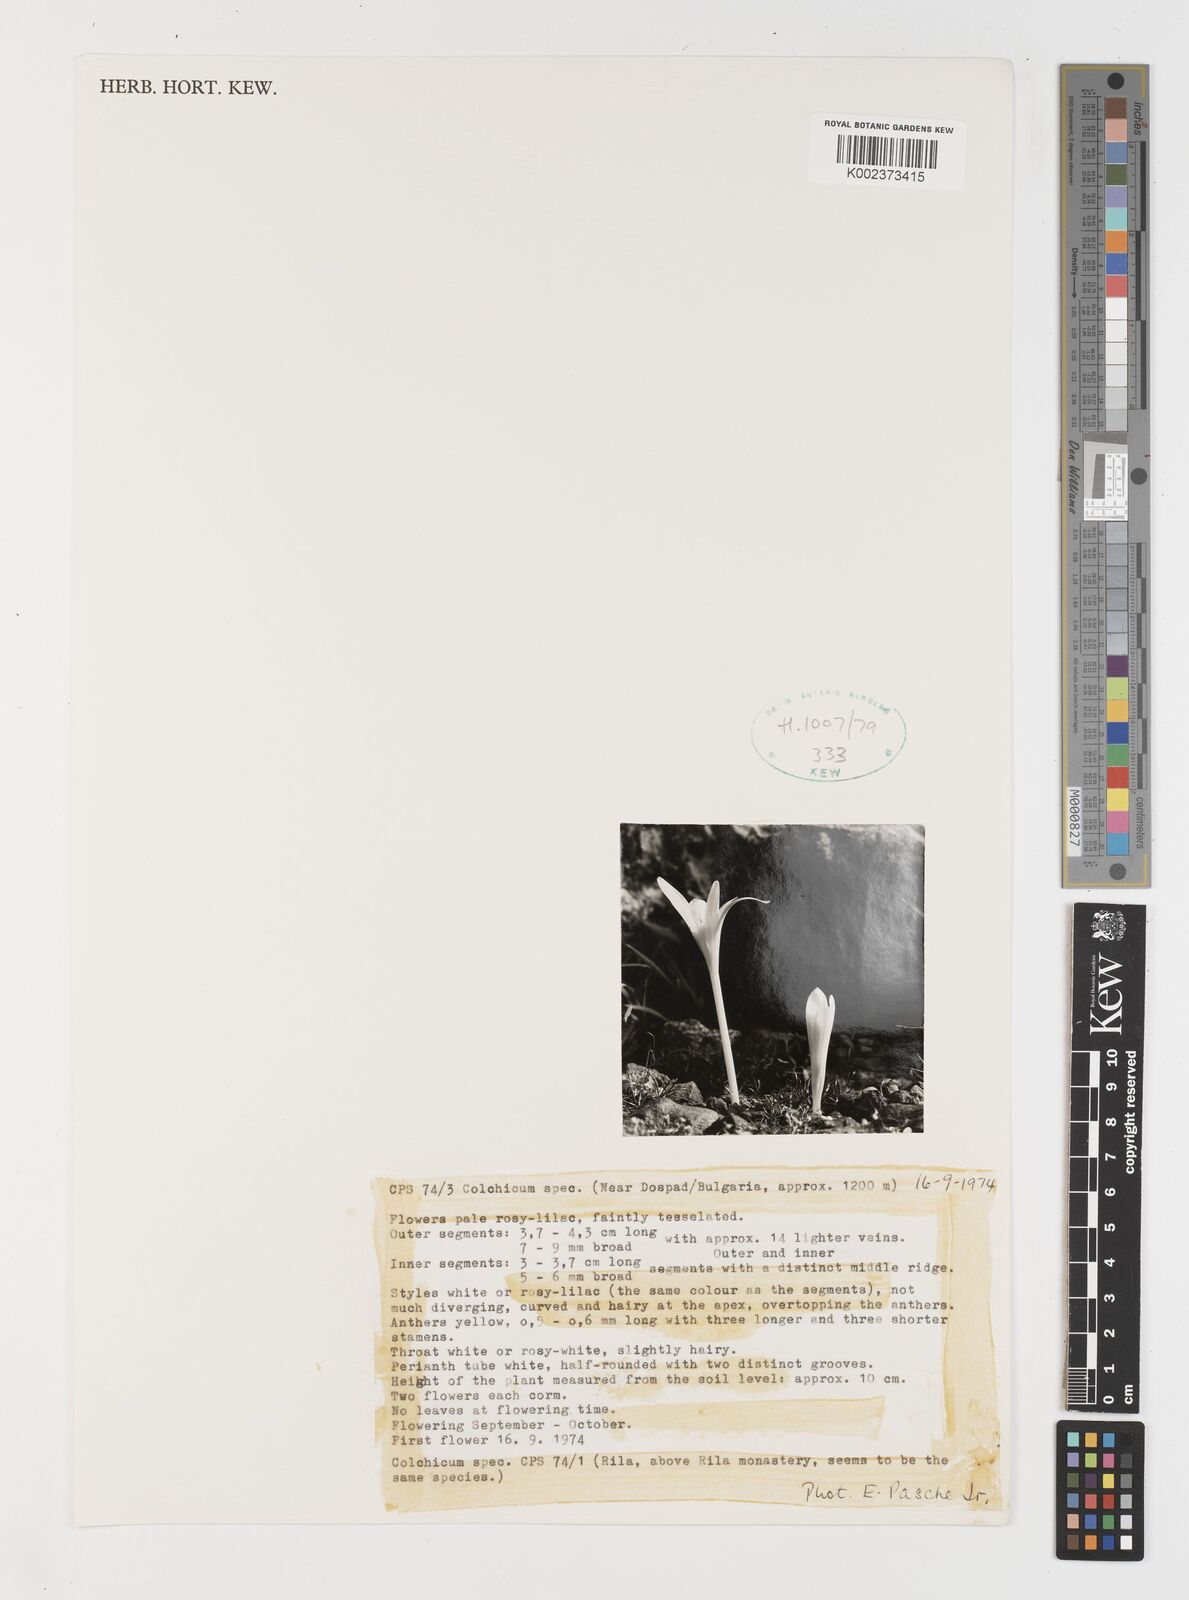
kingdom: Plantae
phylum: Tracheophyta
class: Liliopsida
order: Liliales
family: Colchicaceae
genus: Colchicum
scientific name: Colchicum
